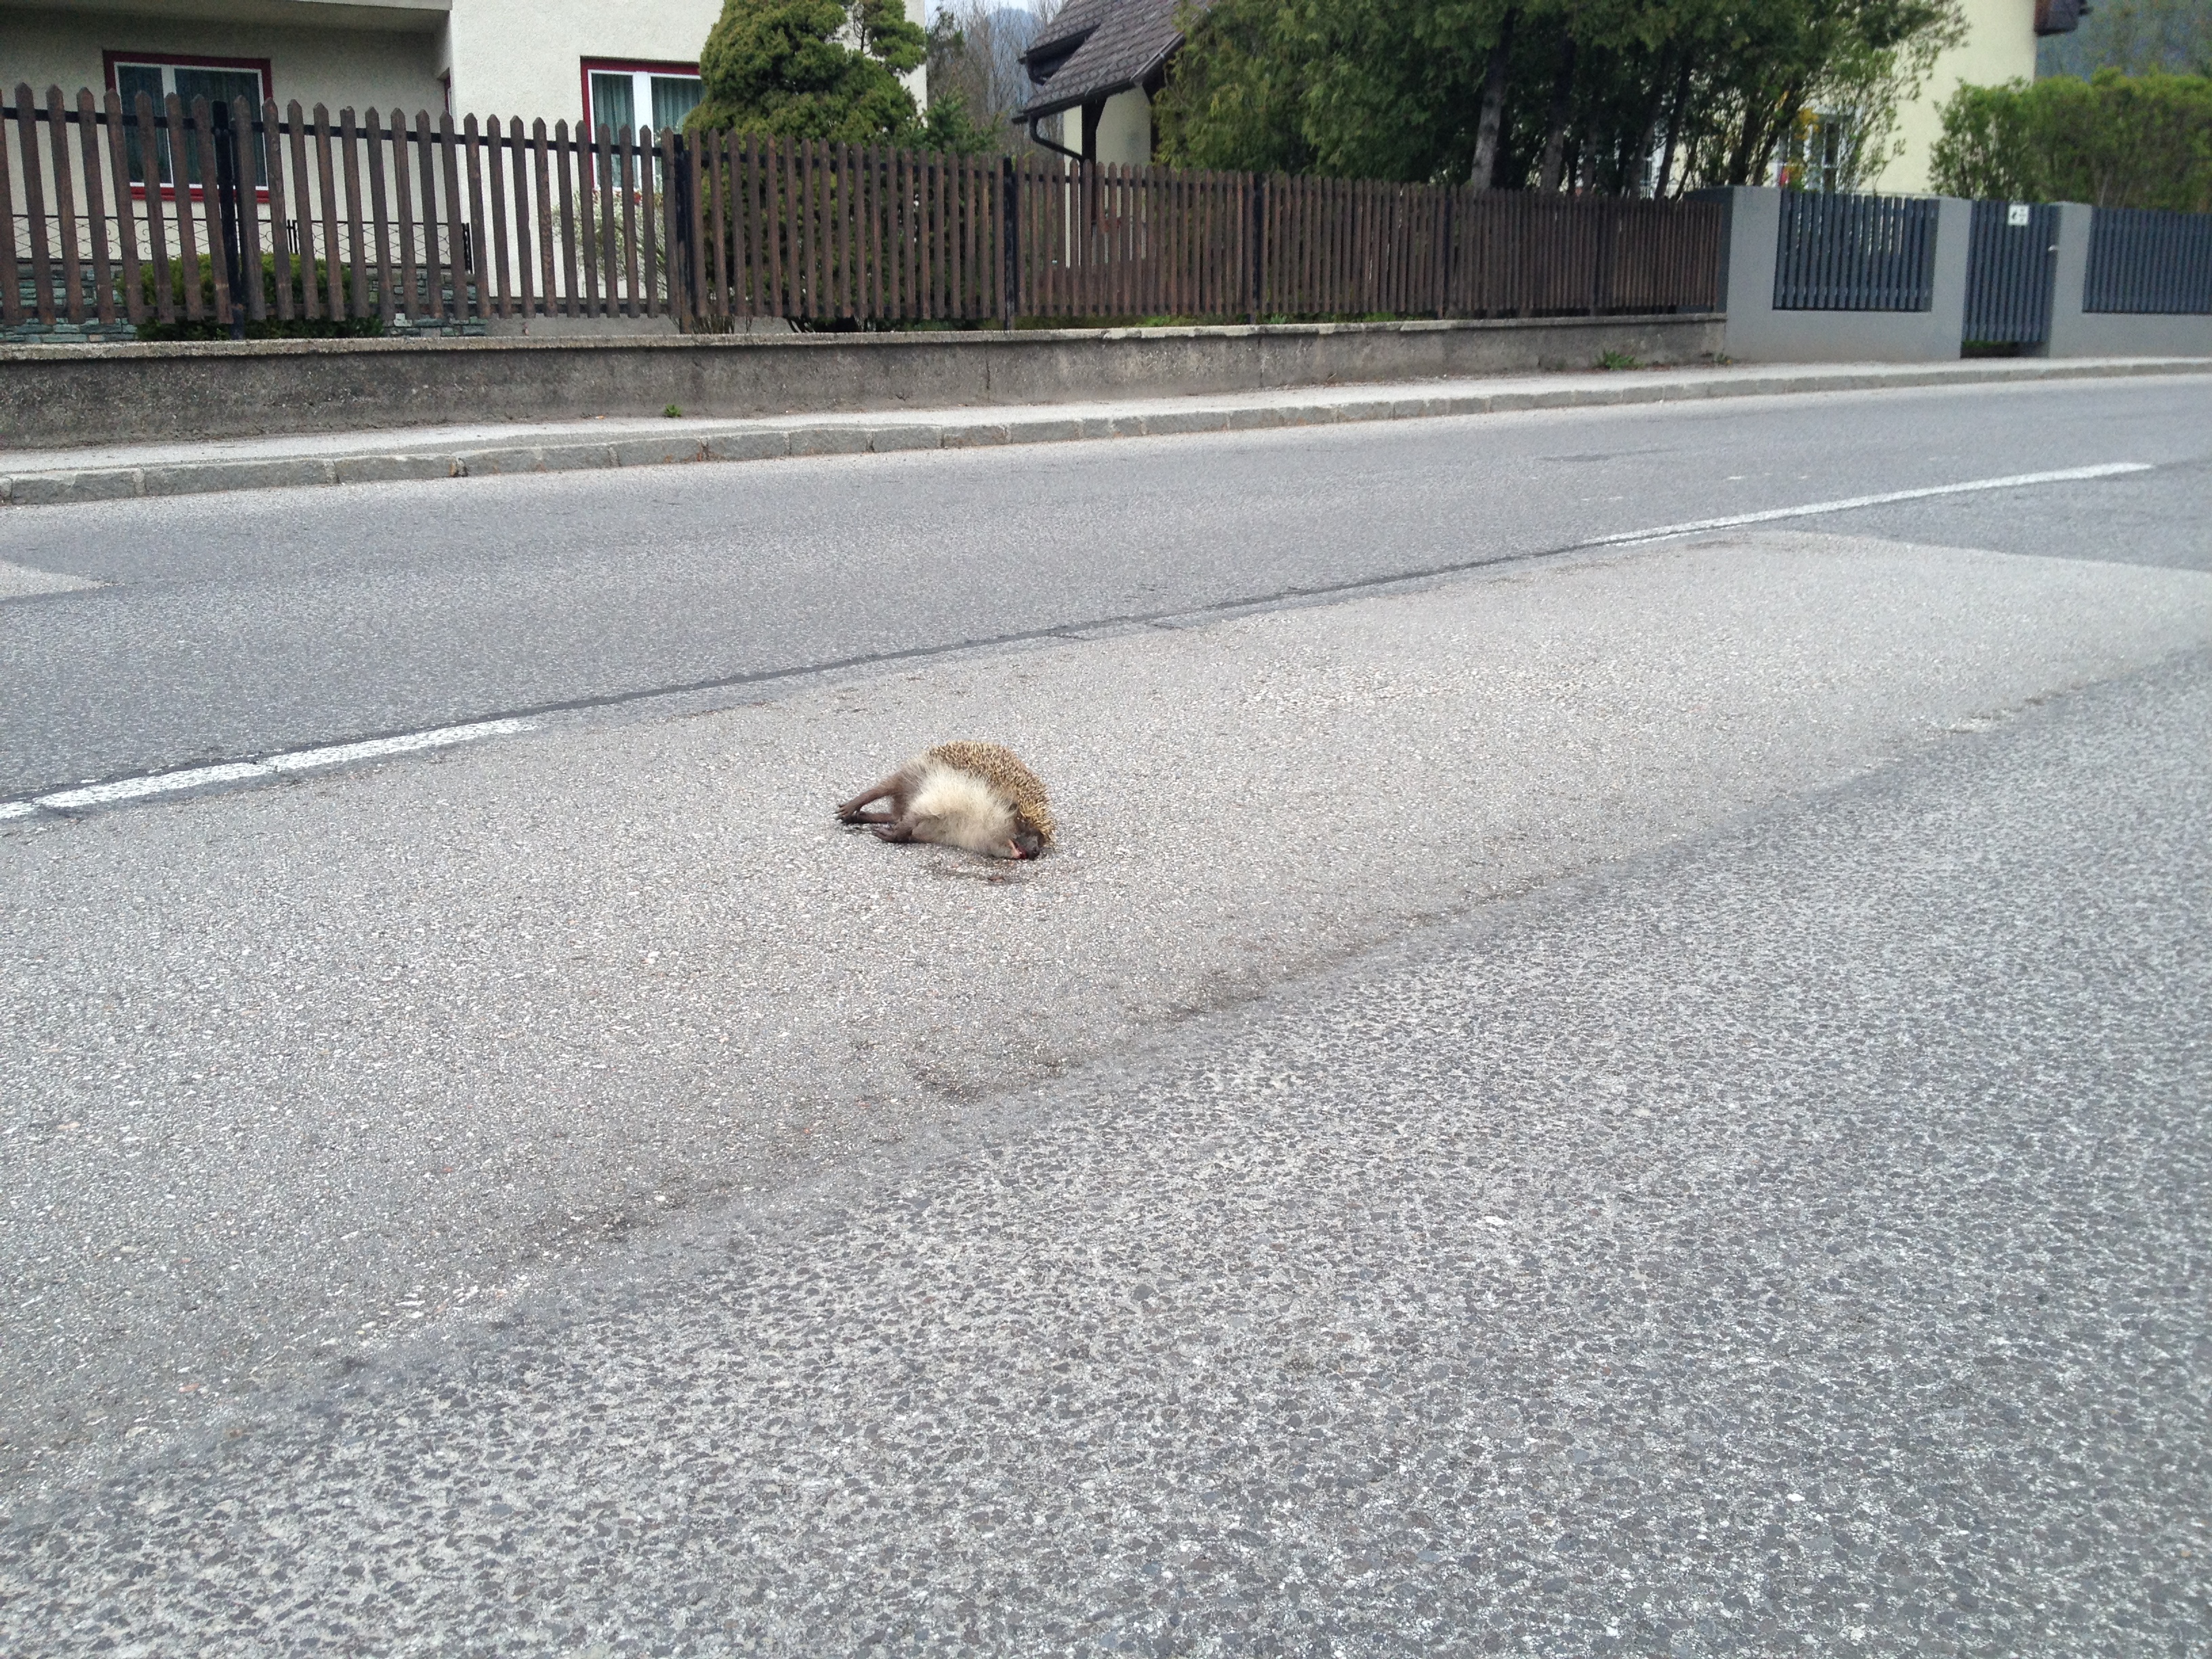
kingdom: Animalia
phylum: Chordata
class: Mammalia
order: Erinaceomorpha
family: Erinaceidae
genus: Erinaceus
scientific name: Erinaceus
